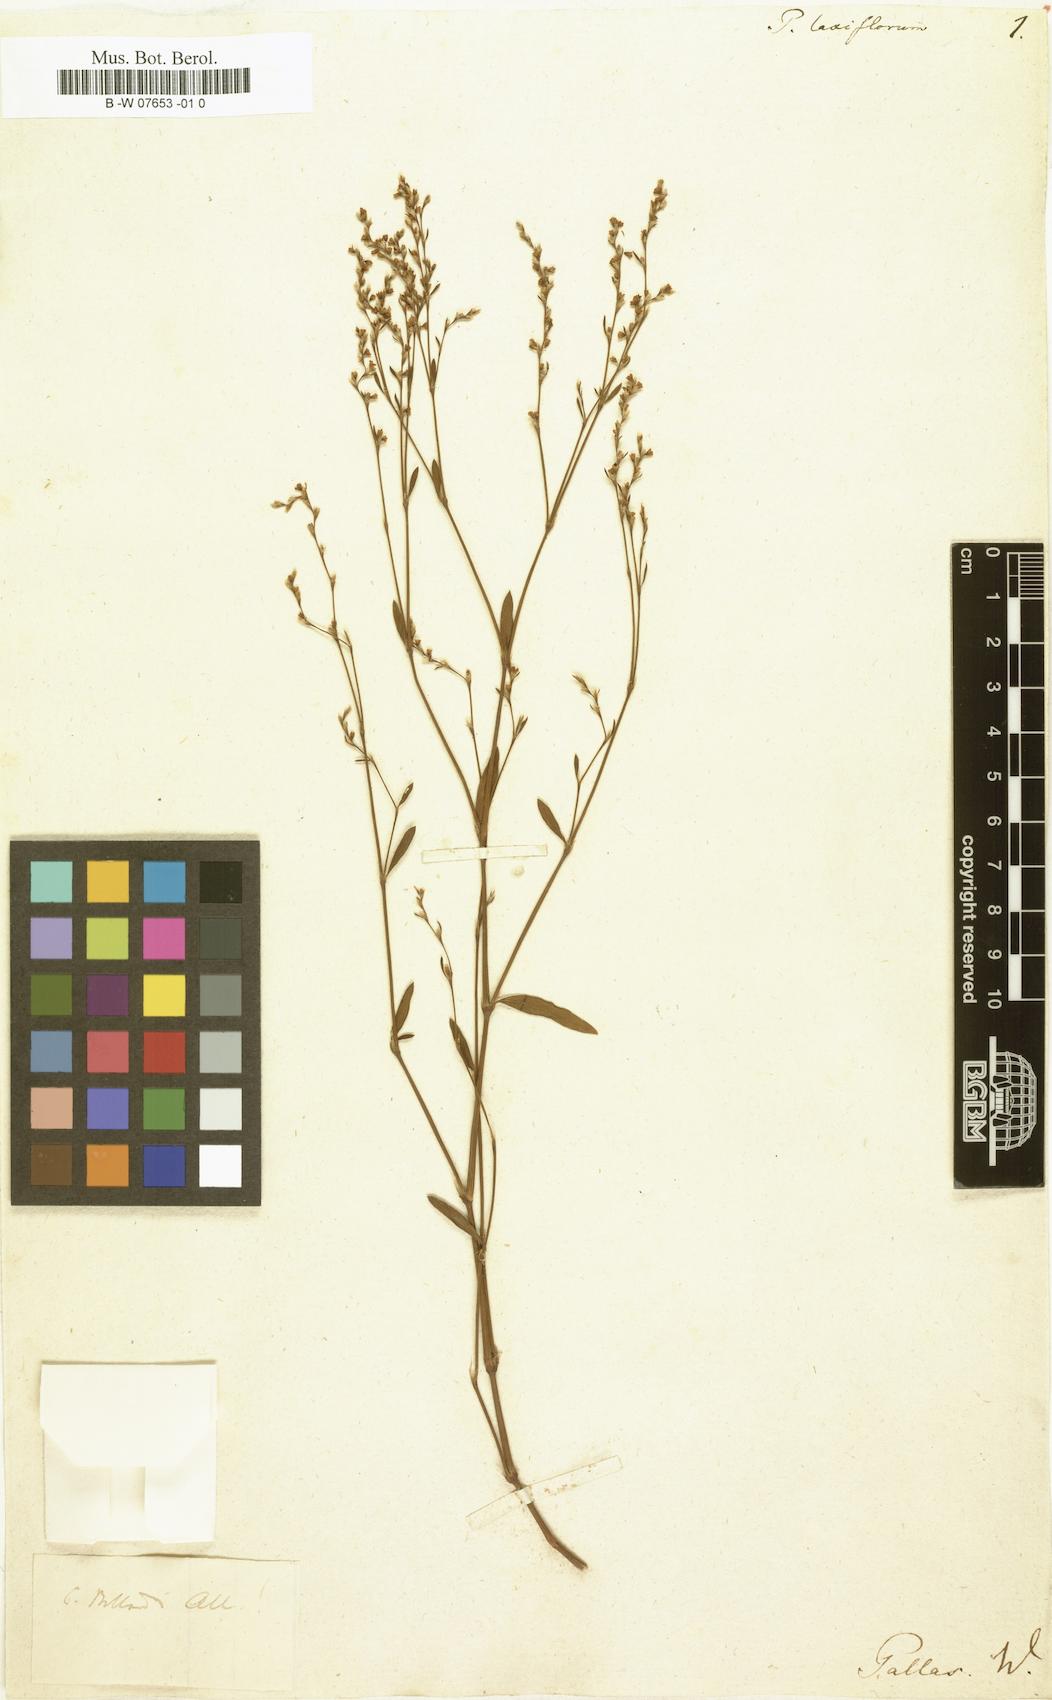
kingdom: Plantae
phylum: Tracheophyta
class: Magnoliopsida
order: Caryophyllales
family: Polygonaceae
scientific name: Polygonaceae
